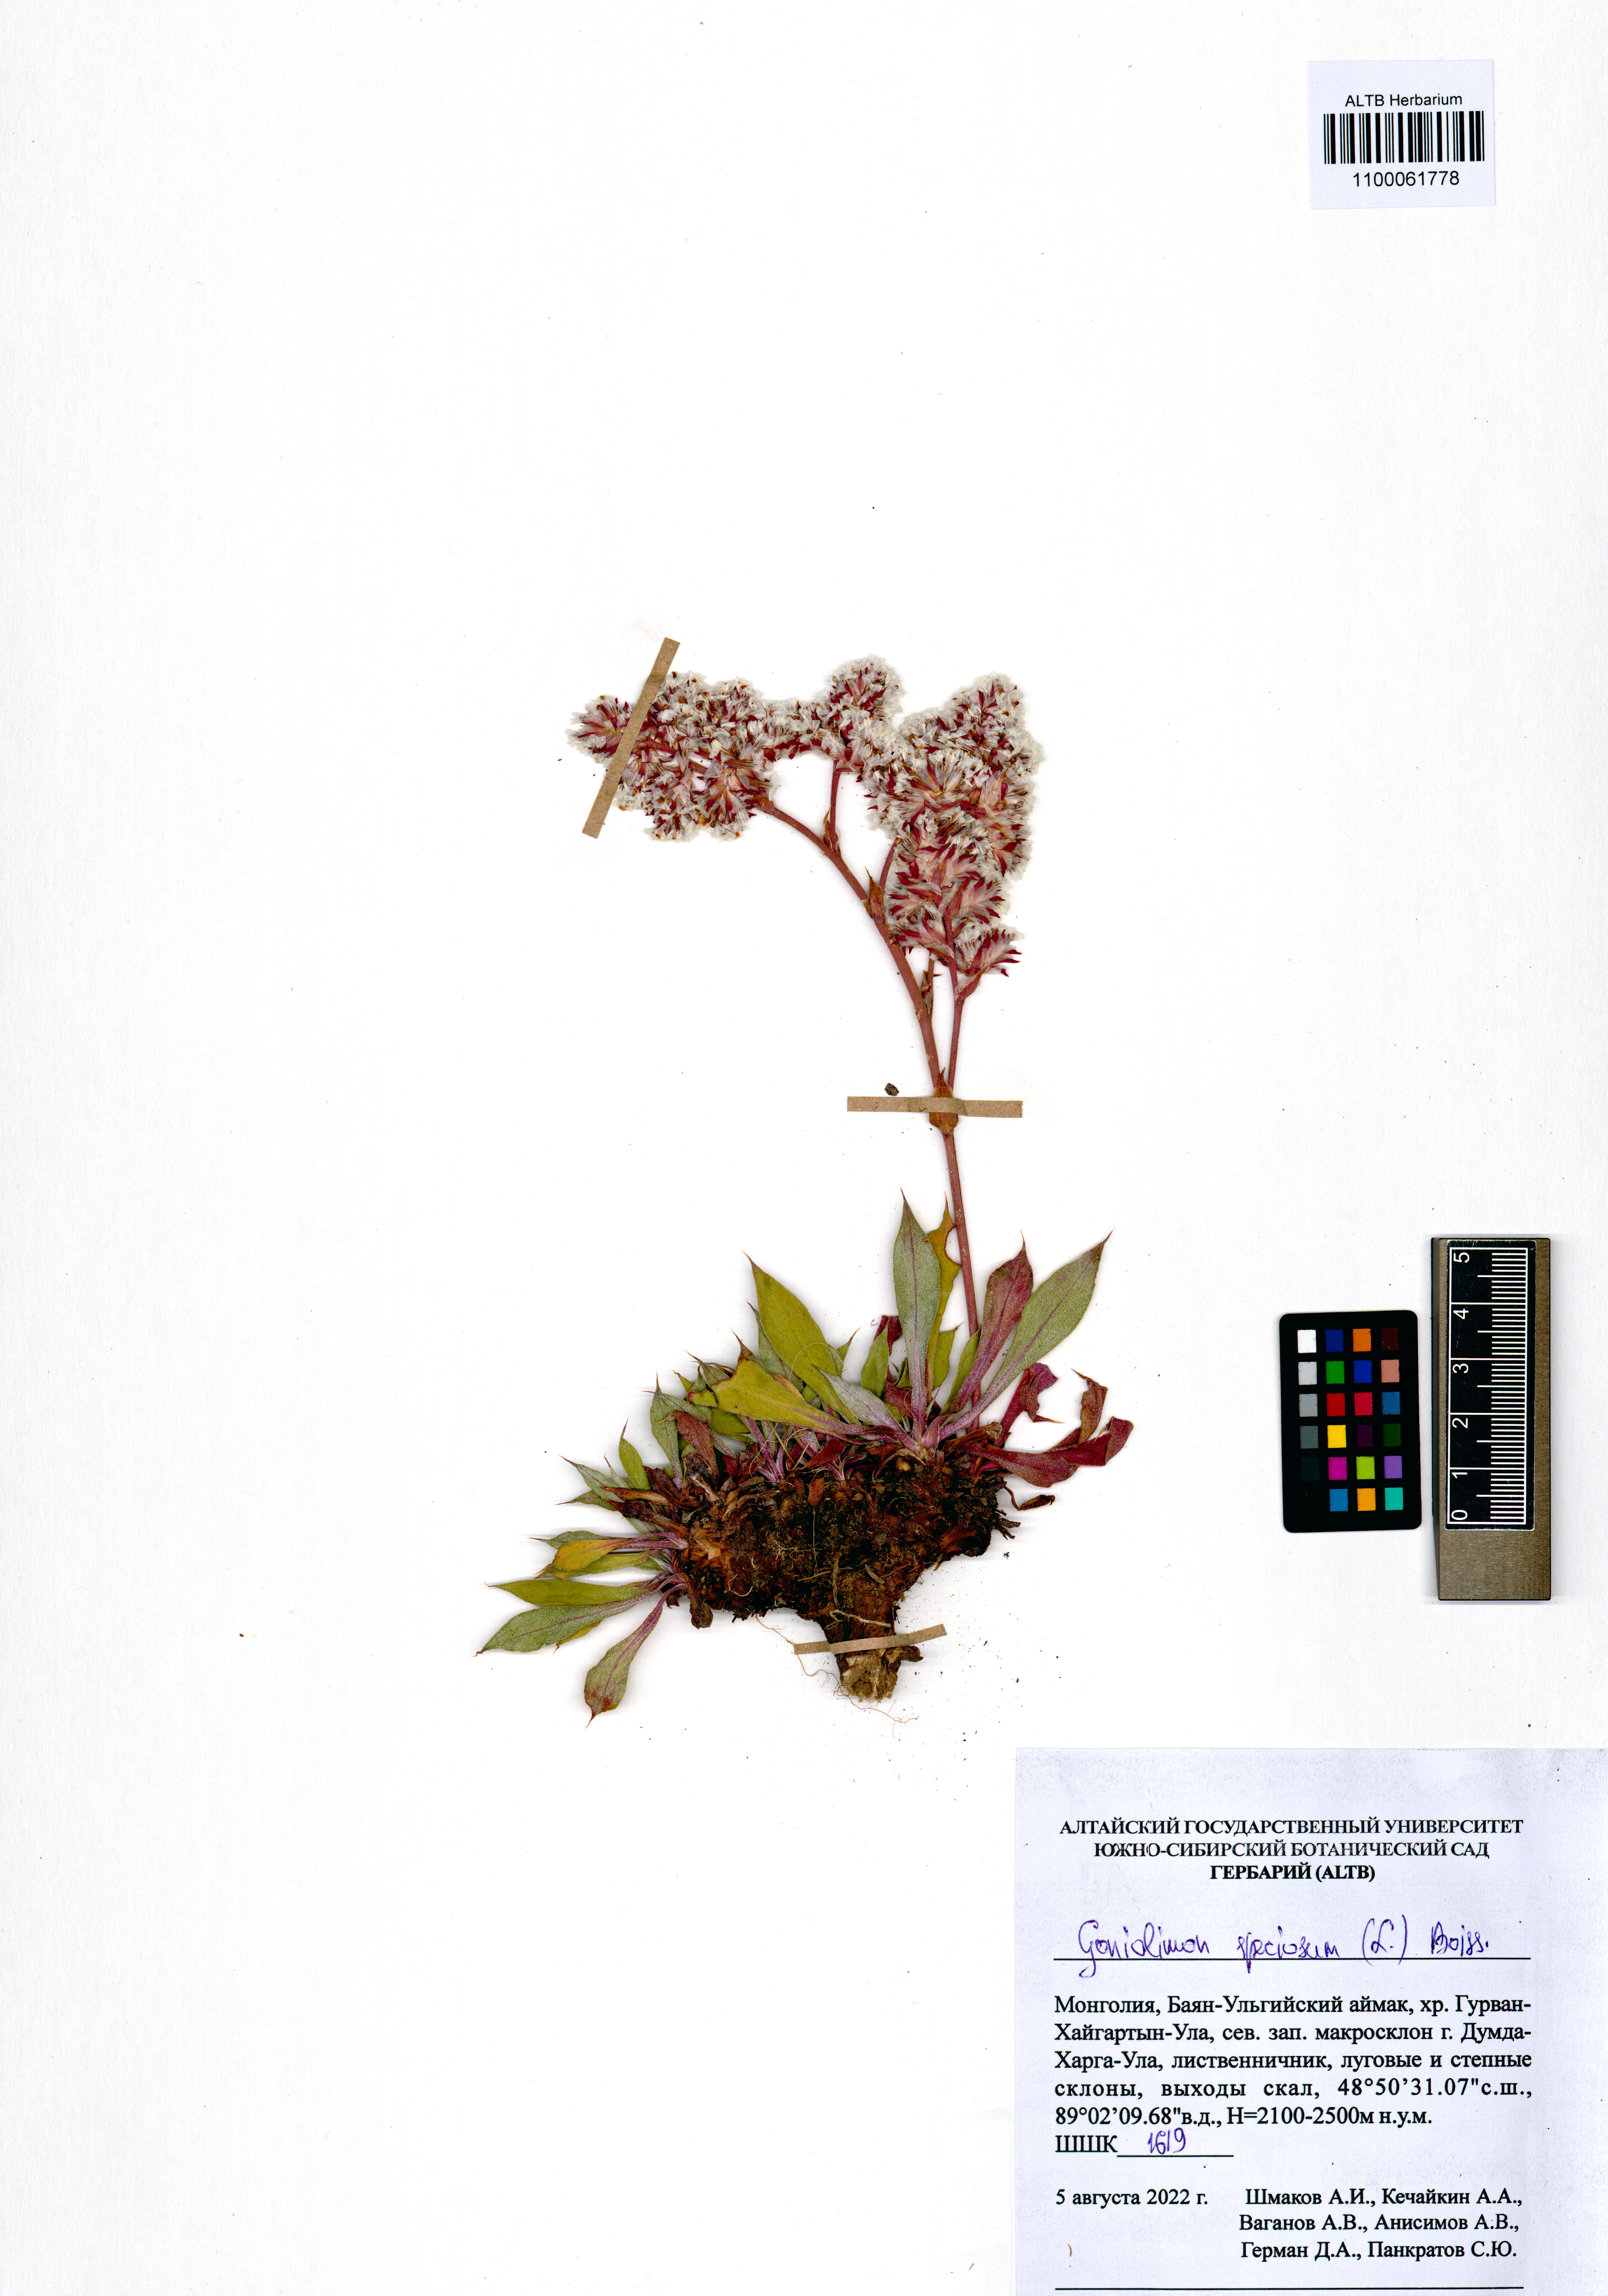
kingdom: Plantae
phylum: Tracheophyta
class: Magnoliopsida
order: Caryophyllales
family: Plumbaginaceae
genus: Goniolimon
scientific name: Goniolimon speciosum
